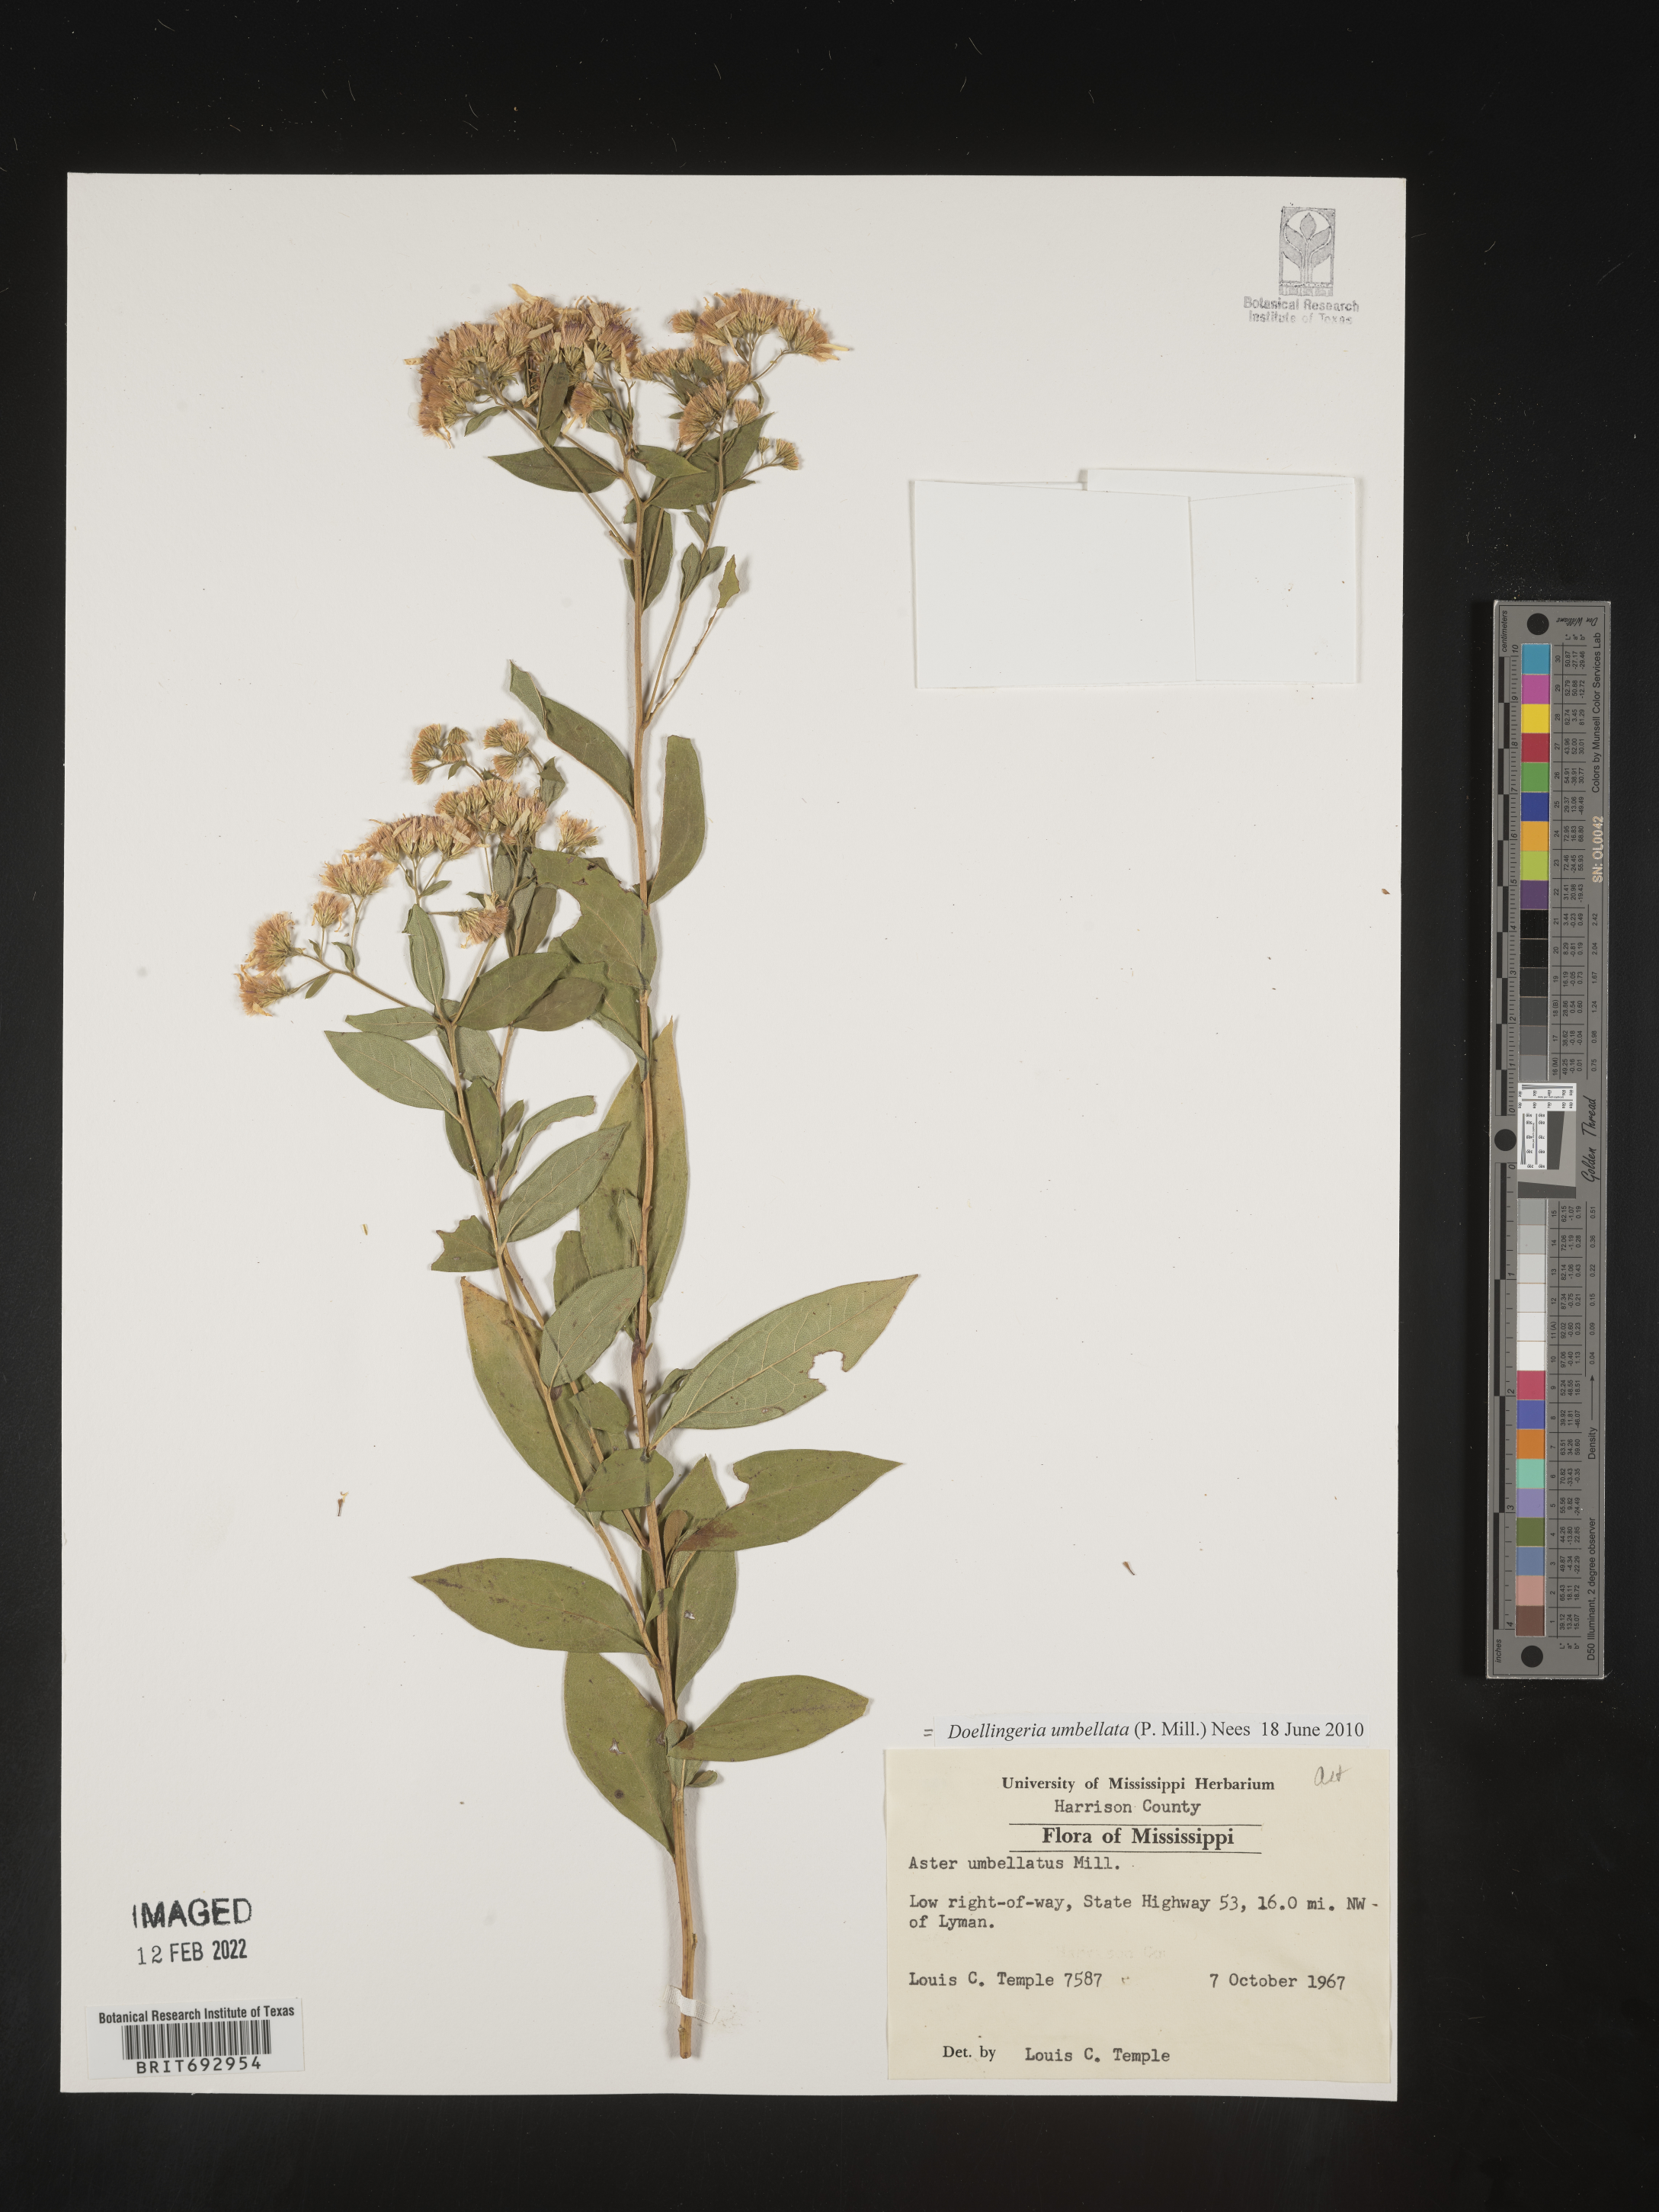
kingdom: Plantae
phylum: Tracheophyta
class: Magnoliopsida
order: Asterales
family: Asteraceae
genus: Doellingeria
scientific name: Doellingeria umbellata
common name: Flat-top white aster
